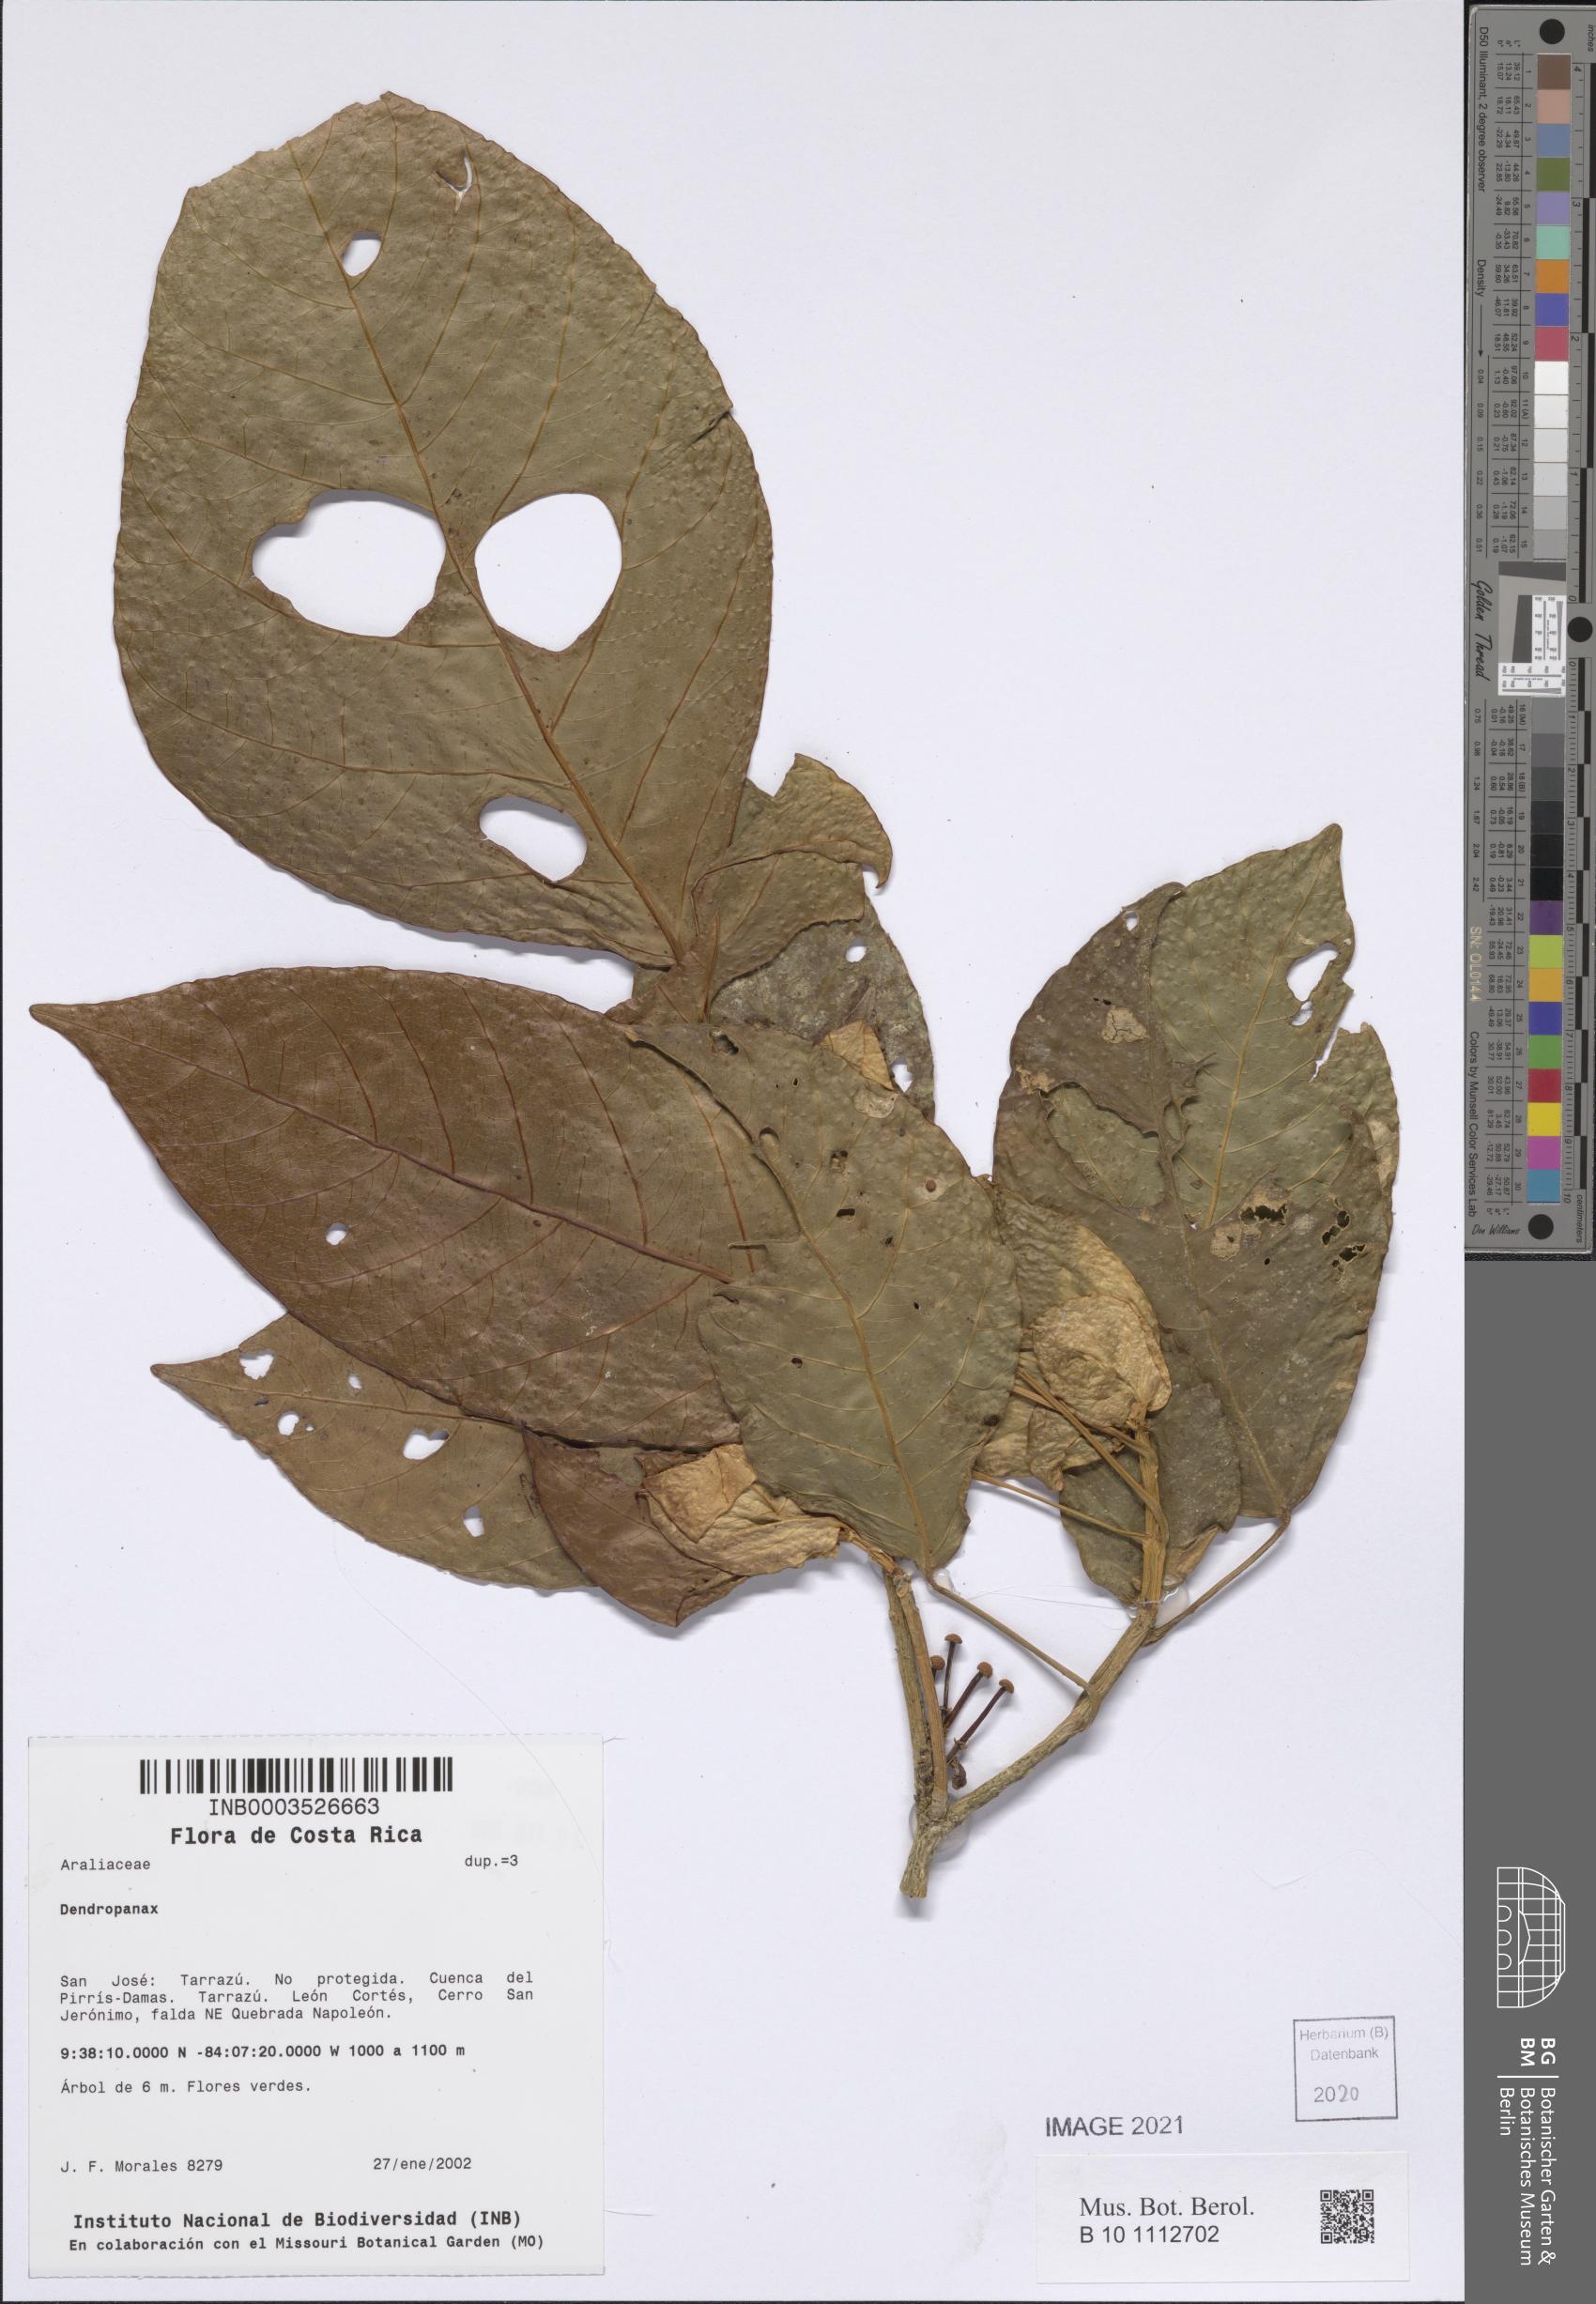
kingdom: Plantae
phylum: Tracheophyta
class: Magnoliopsida
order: Apiales
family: Araliaceae
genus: Dendropanax
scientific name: Dendropanax
